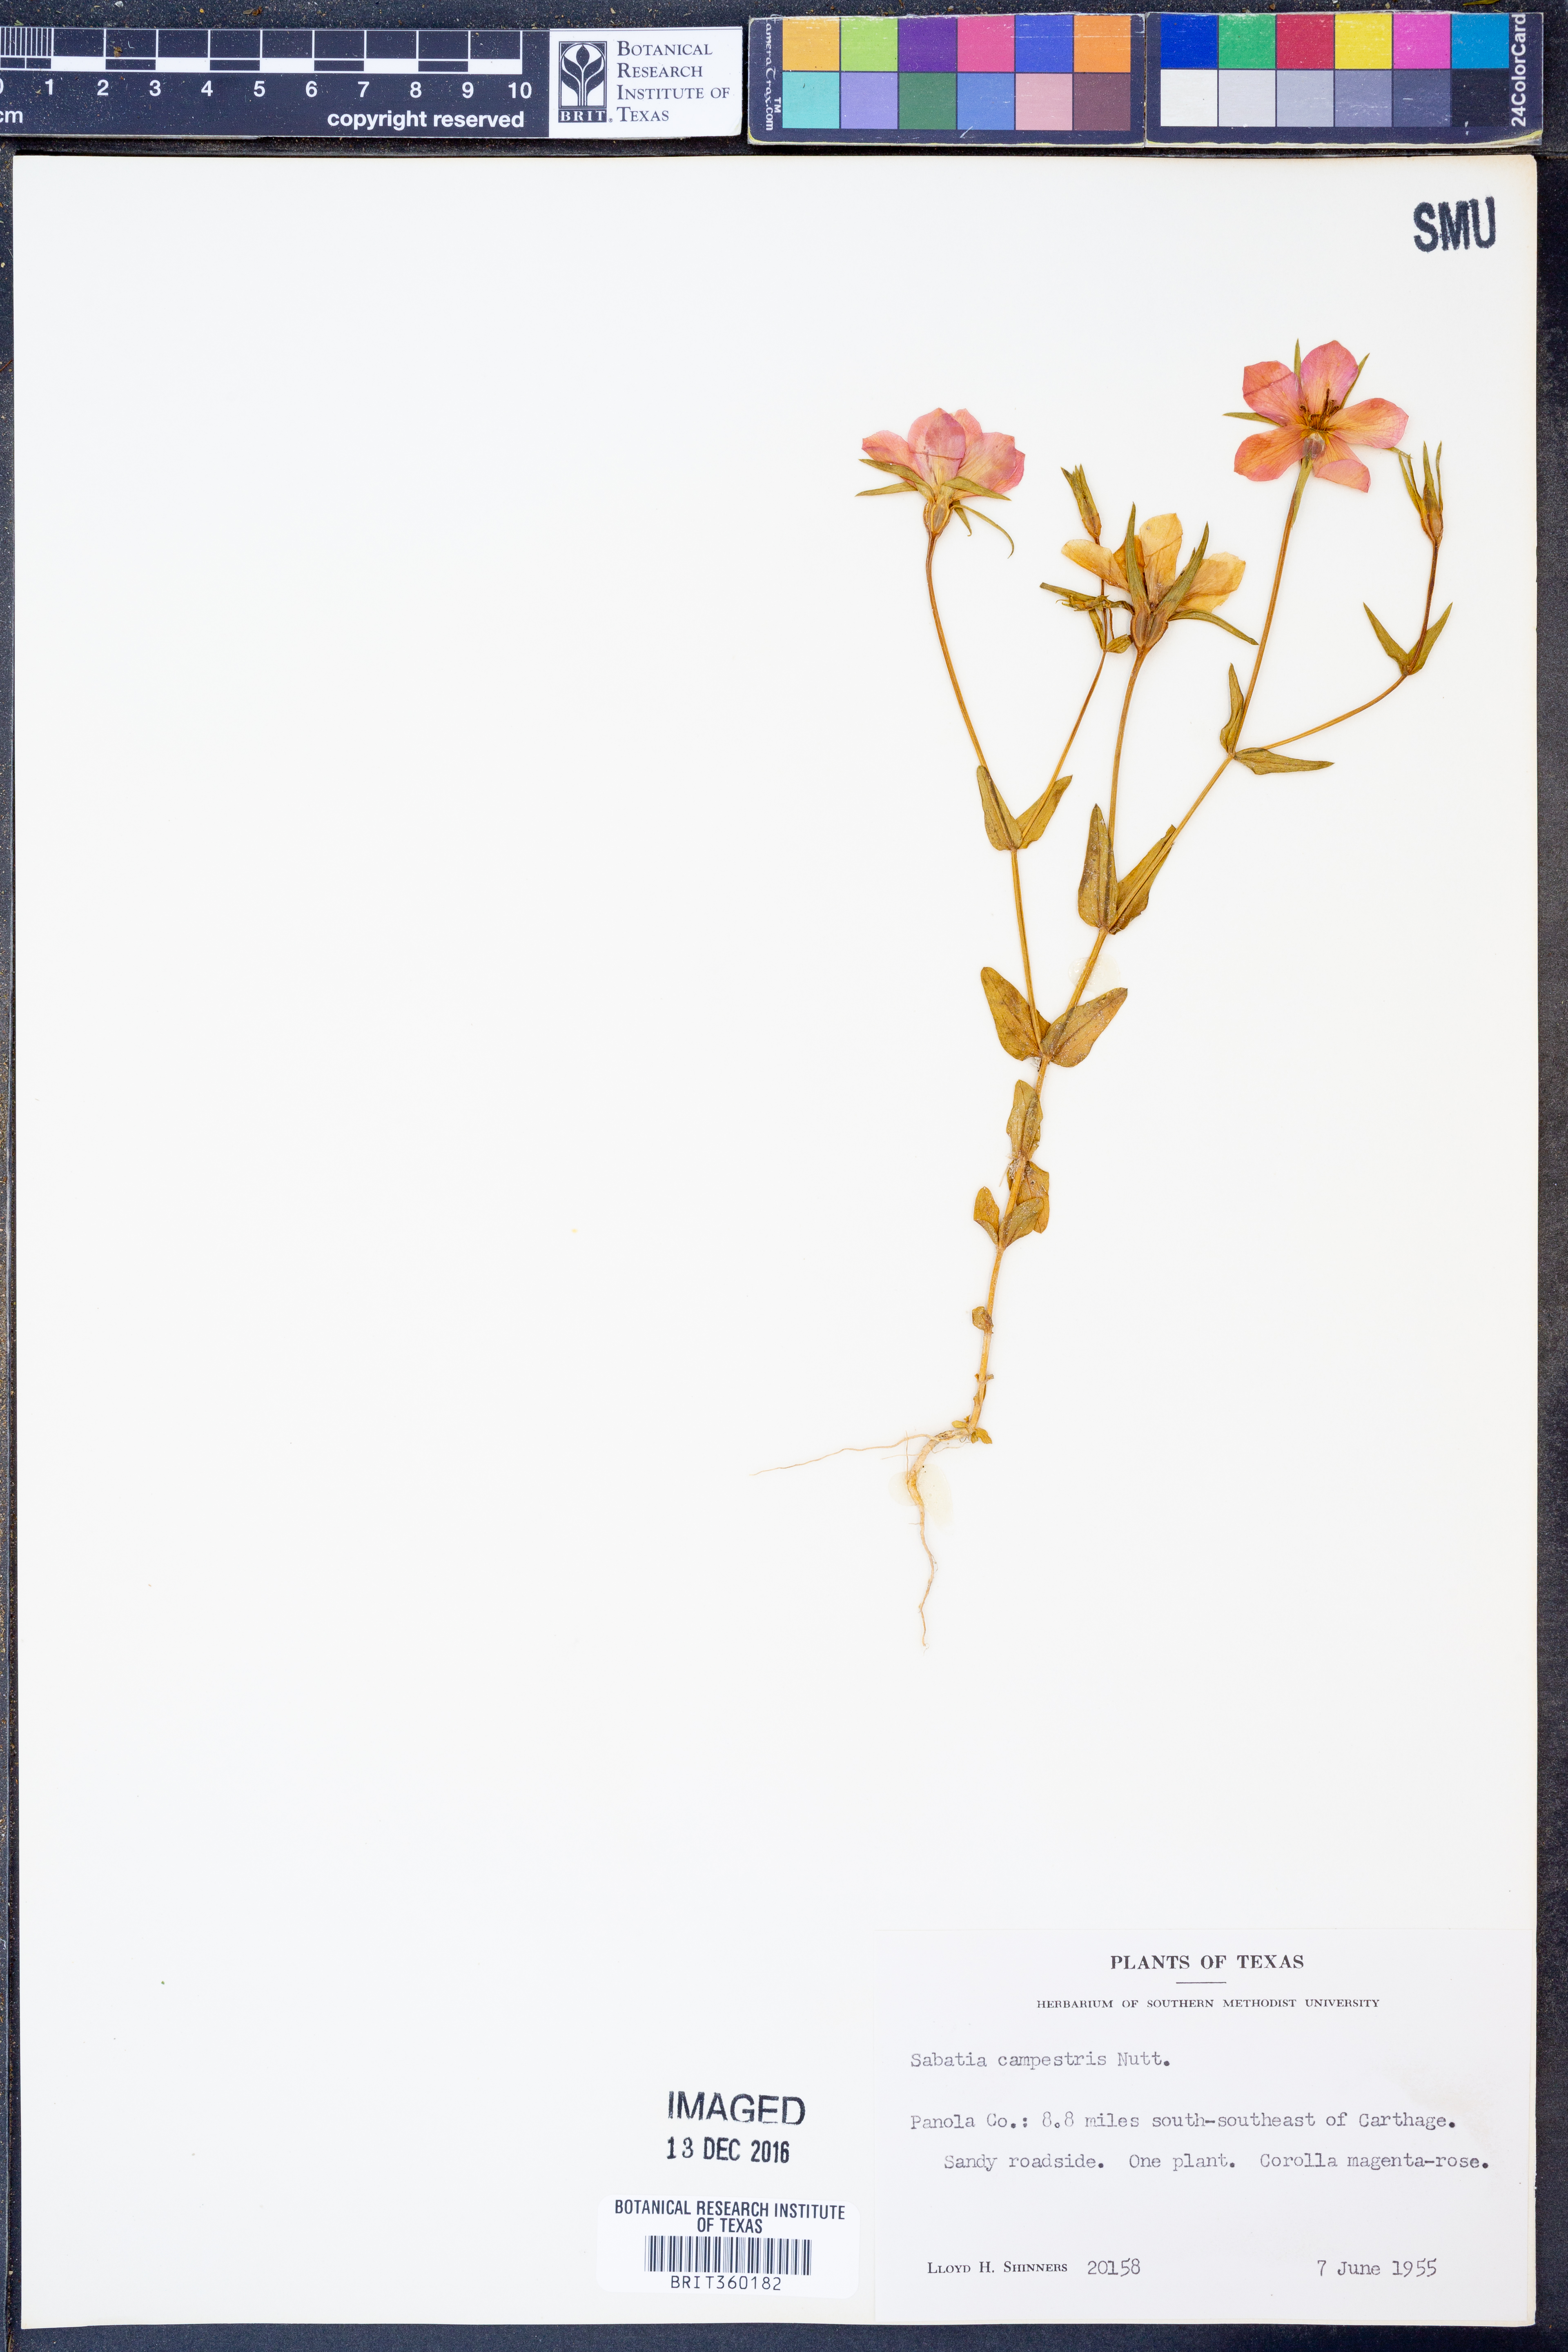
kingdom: Plantae
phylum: Tracheophyta
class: Magnoliopsida
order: Gentianales
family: Gentianaceae
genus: Sabatia
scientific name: Sabatia campestris
